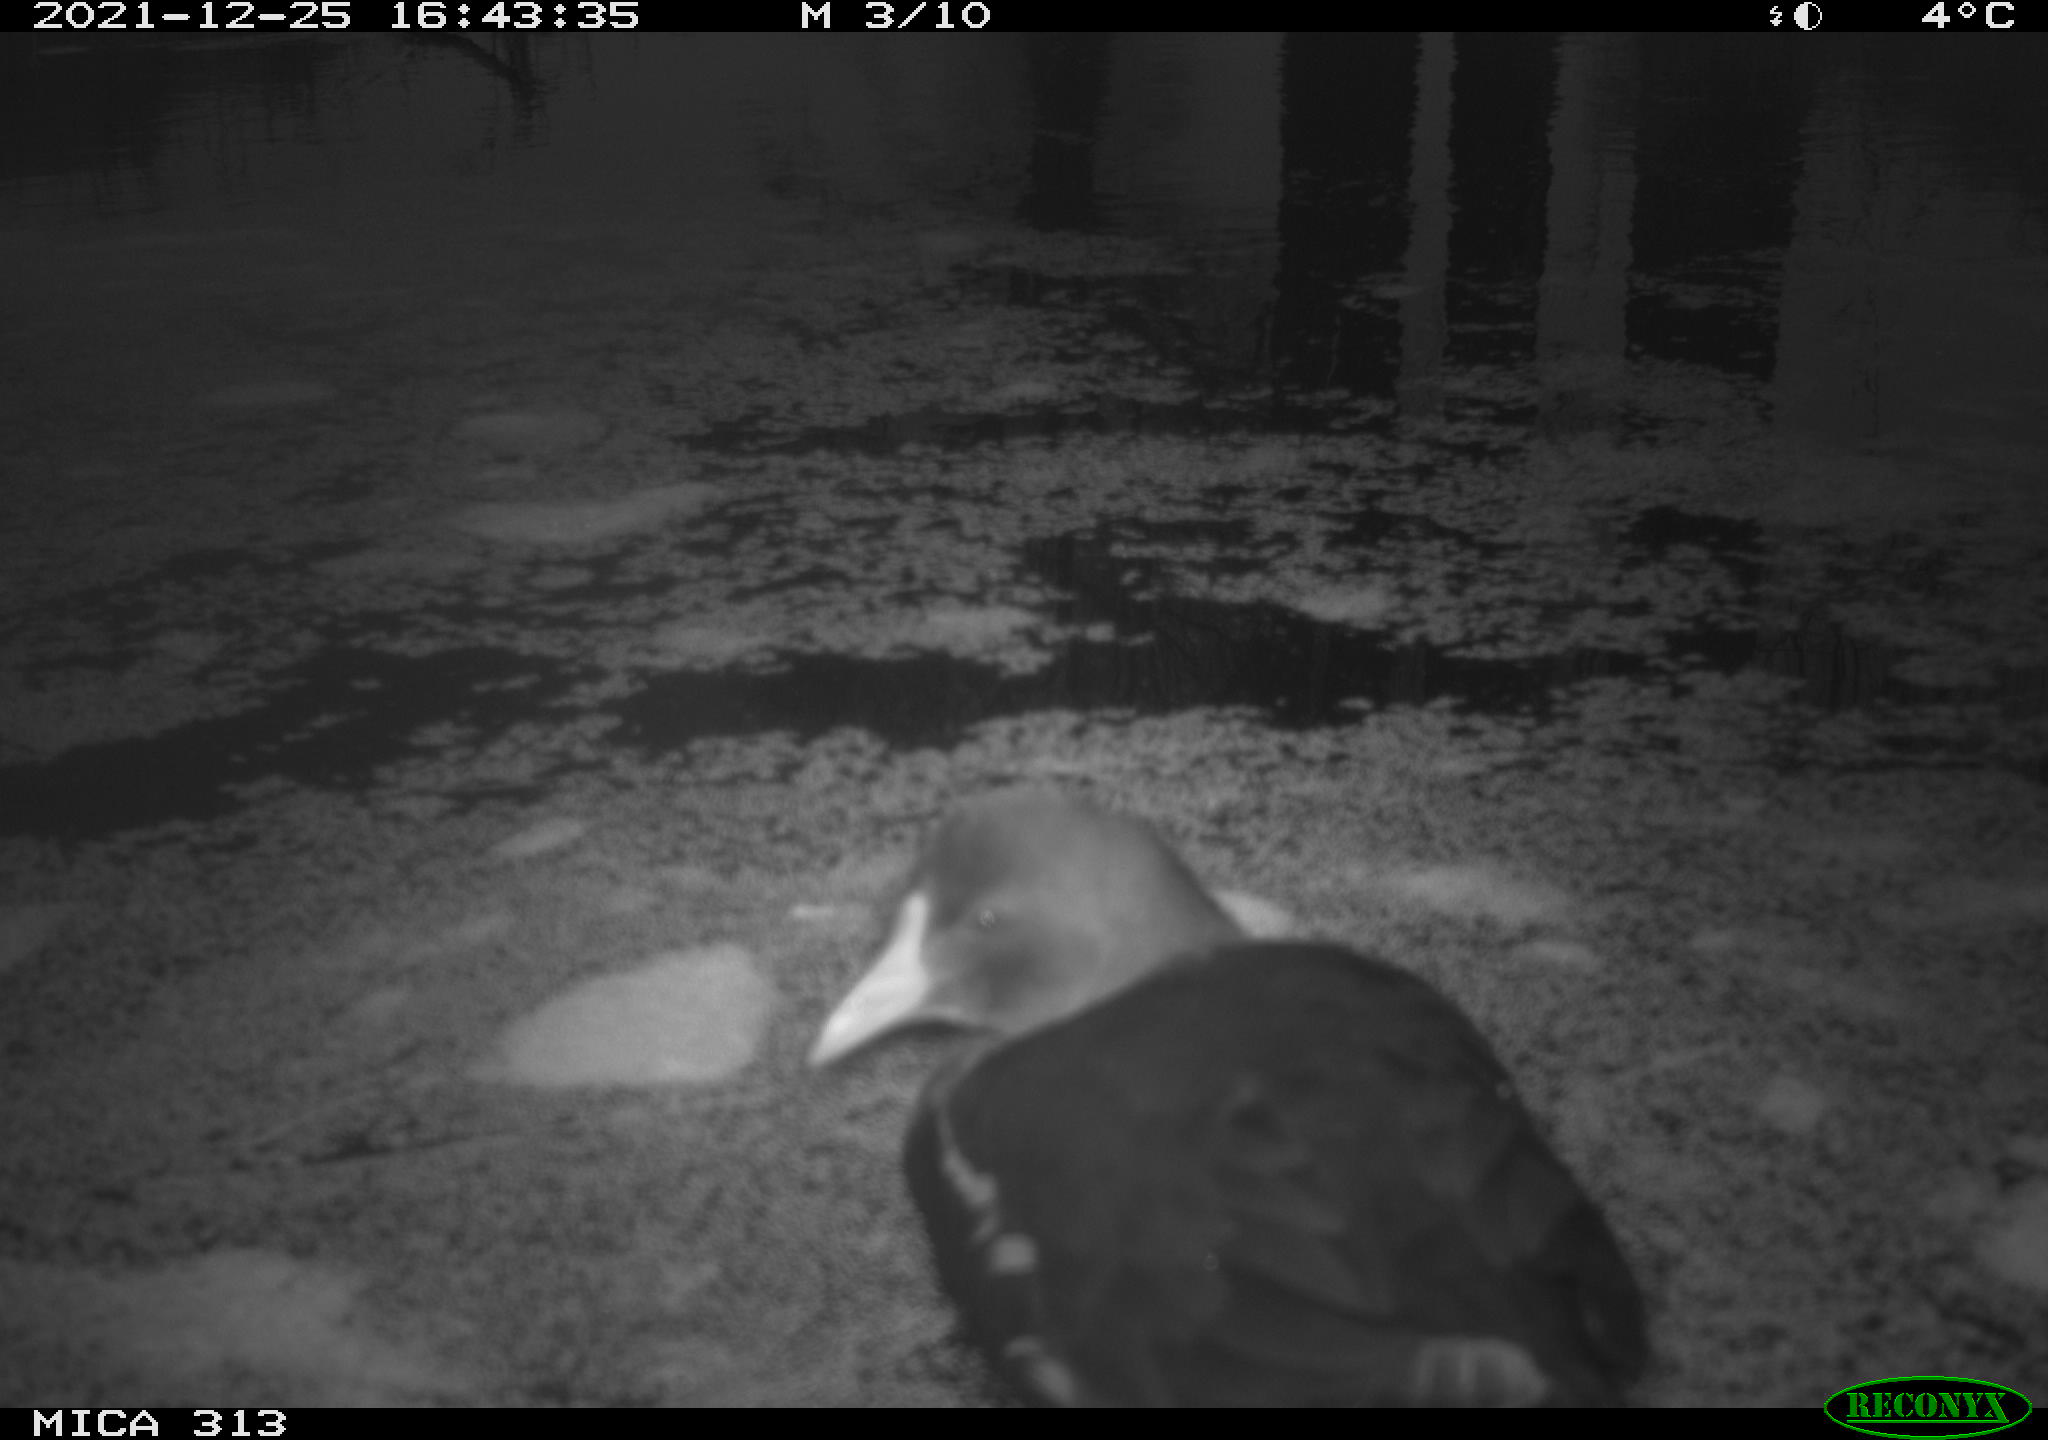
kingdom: Animalia
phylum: Chordata
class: Aves
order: Gruiformes
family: Rallidae
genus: Gallinula
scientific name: Gallinula chloropus
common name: Common moorhen
